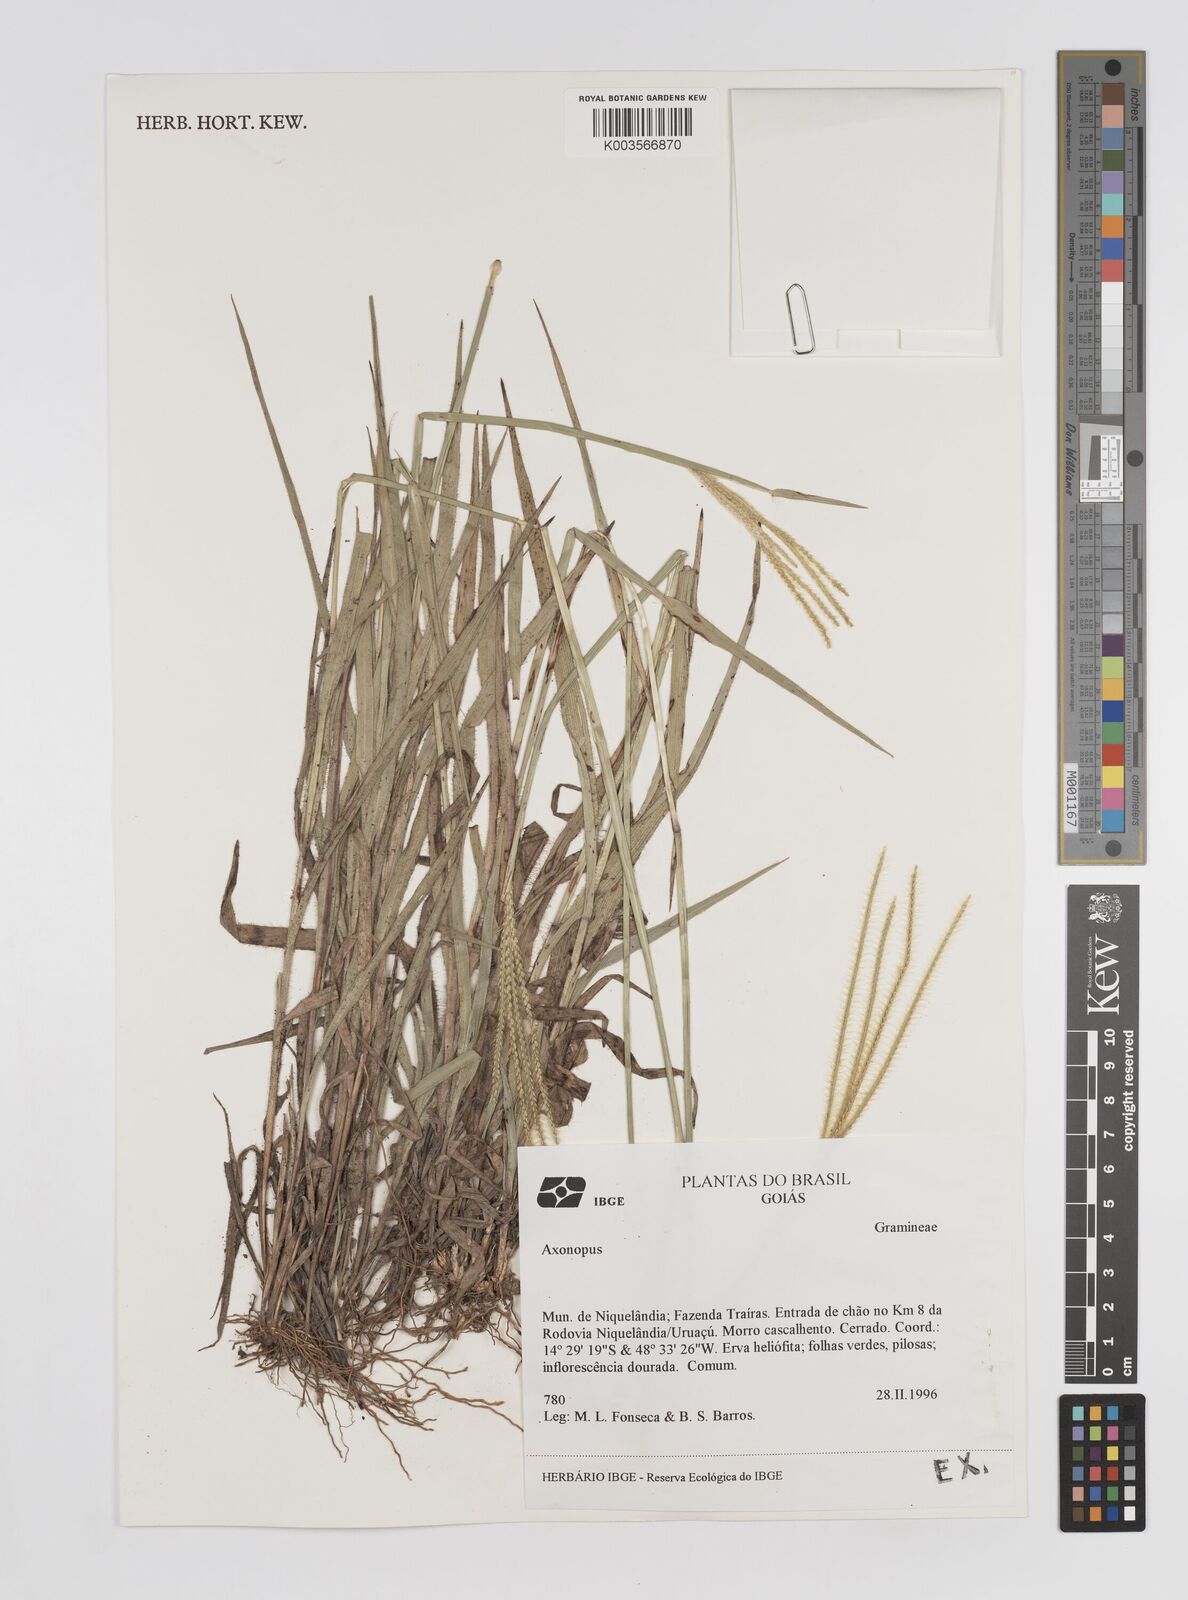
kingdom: Plantae
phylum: Tracheophyta
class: Liliopsida
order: Poales
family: Poaceae
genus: Axonopus
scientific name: Axonopus aureus
